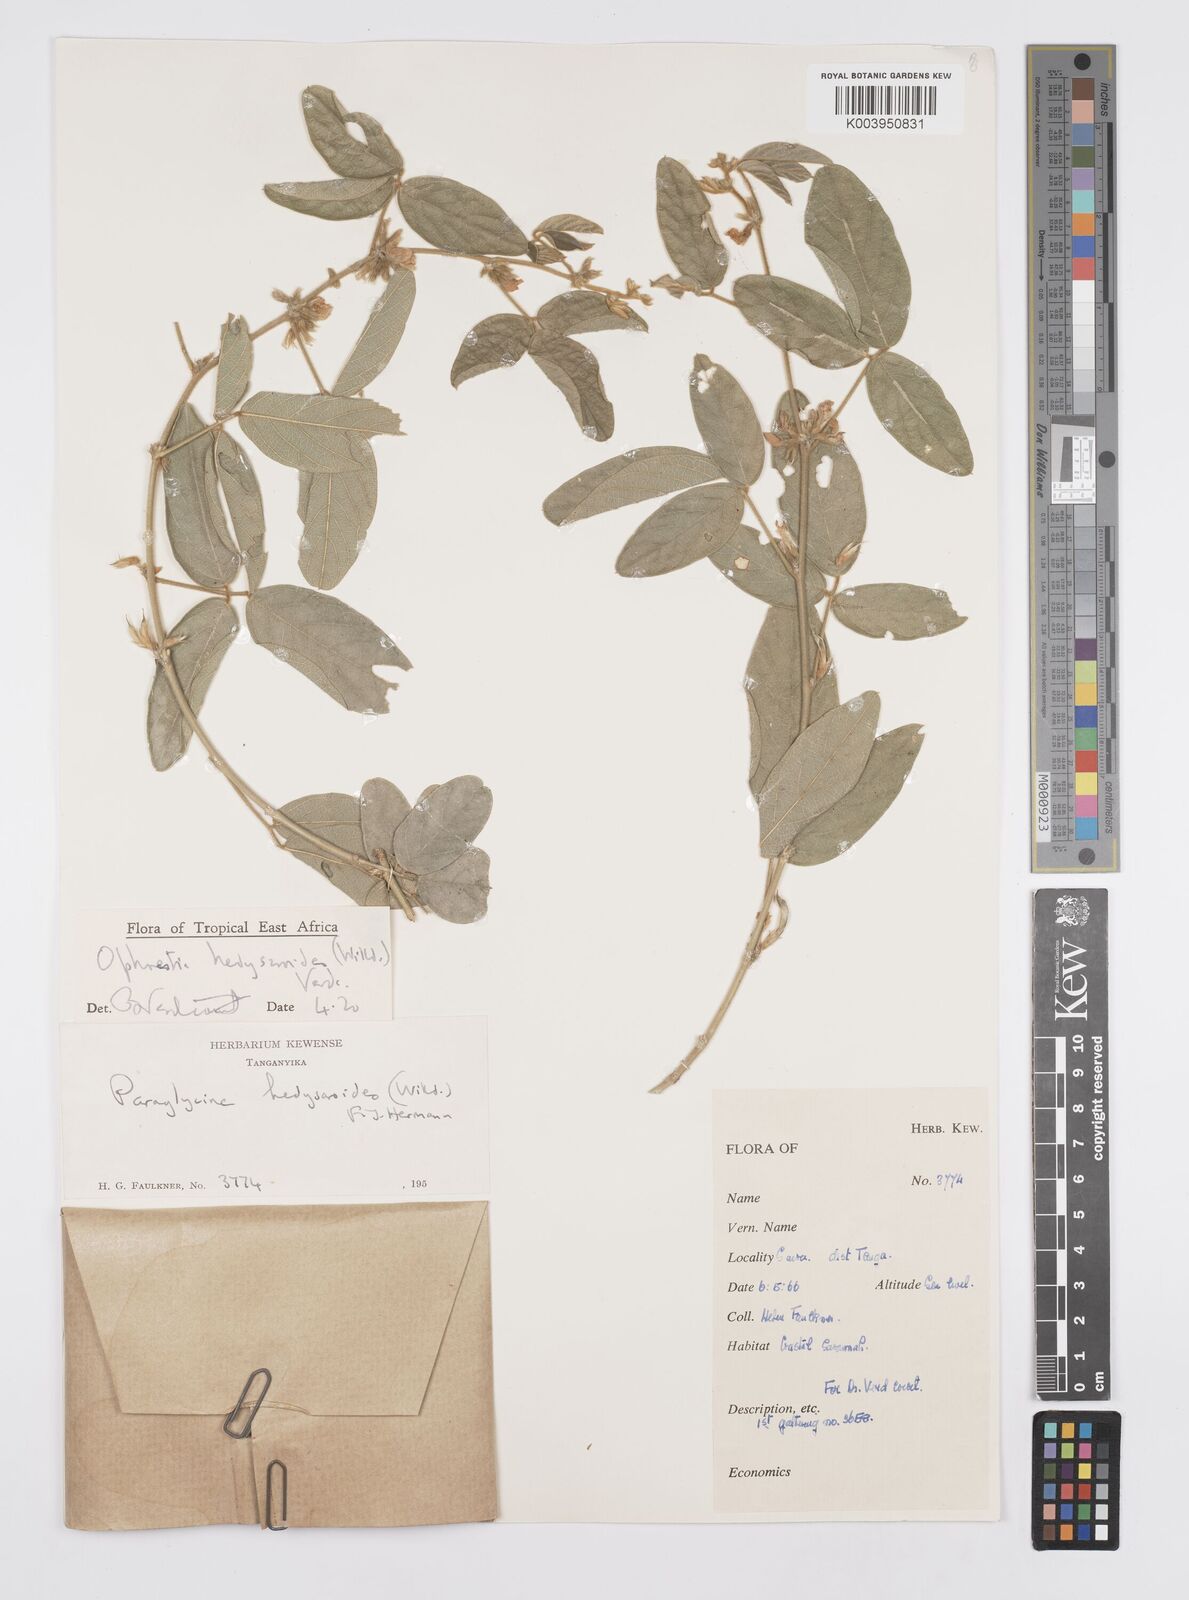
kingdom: Plantae
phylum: Tracheophyta
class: Magnoliopsida
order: Fabales
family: Fabaceae
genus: Ophrestia
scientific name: Ophrestia hedysaroides
